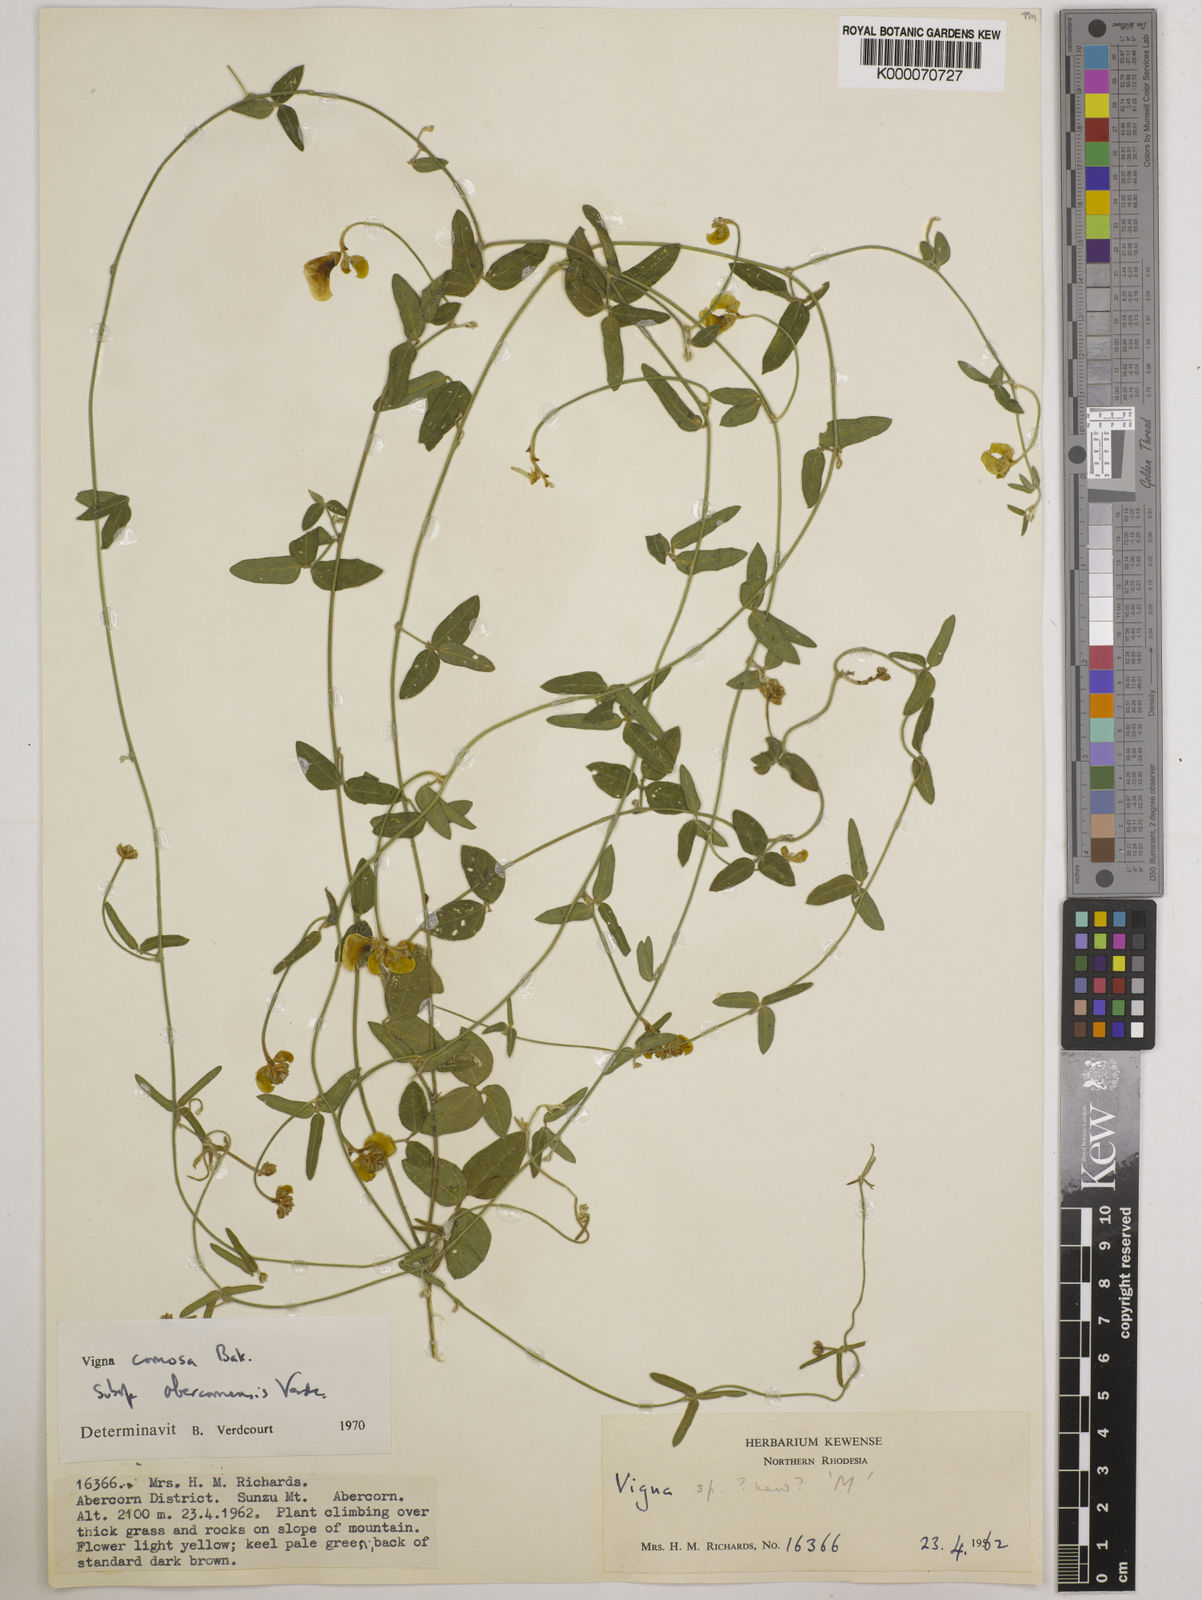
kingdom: Plantae
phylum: Tracheophyta
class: Magnoliopsida
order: Fabales
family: Fabaceae
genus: Vigna
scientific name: Vigna comosa
